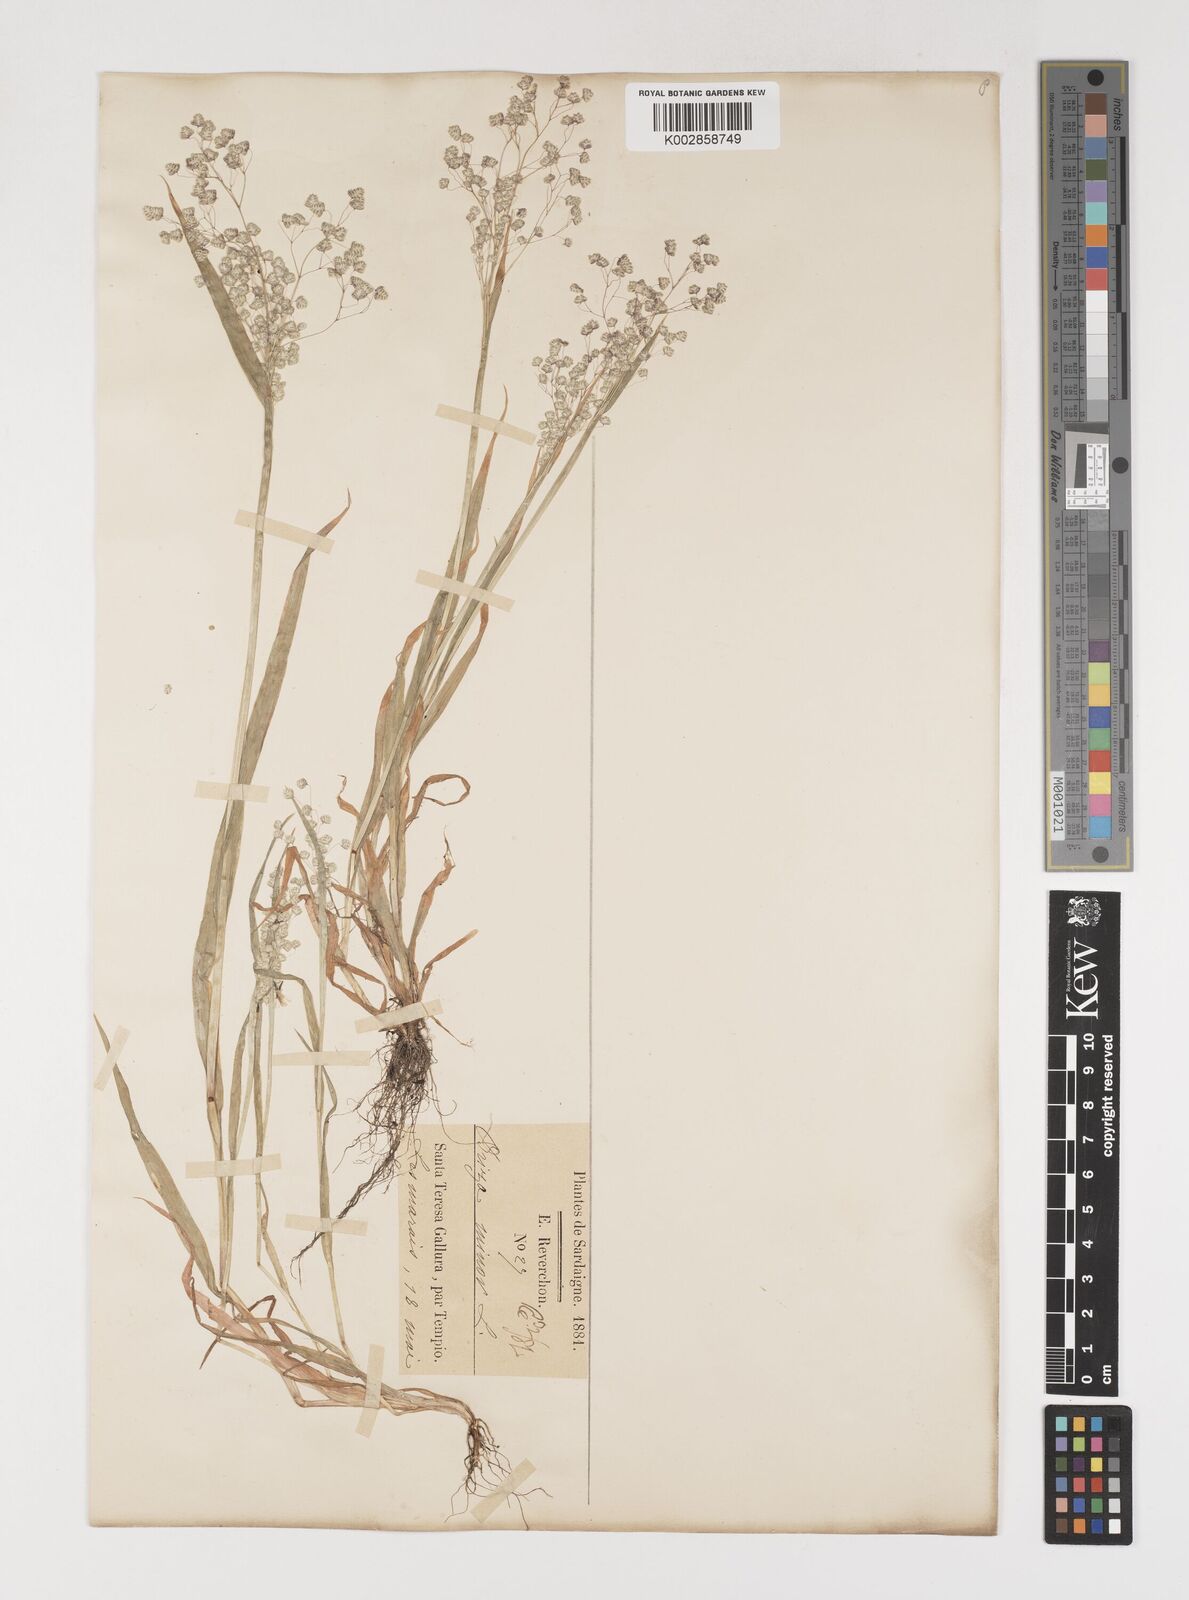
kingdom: Plantae
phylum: Tracheophyta
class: Liliopsida
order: Poales
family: Poaceae
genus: Briza
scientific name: Briza minor
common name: Lesser quaking-grass
